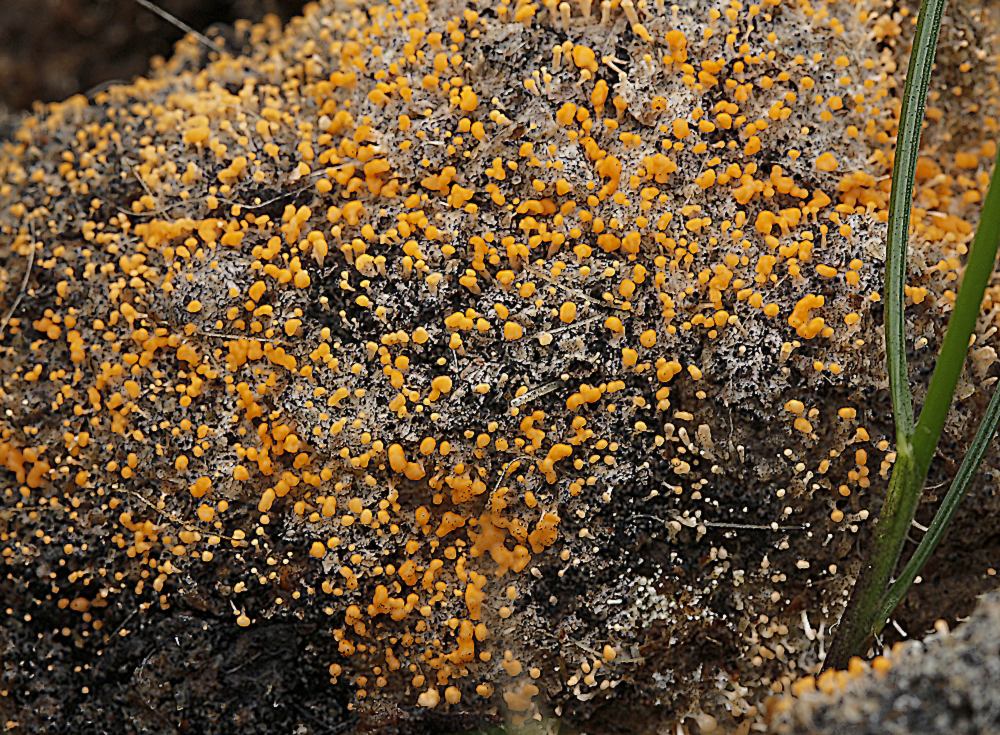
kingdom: Fungi
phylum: Ascomycota
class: Sordariomycetes
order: Hypocreales
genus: Stilbella
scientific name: Stilbella fimetaria
